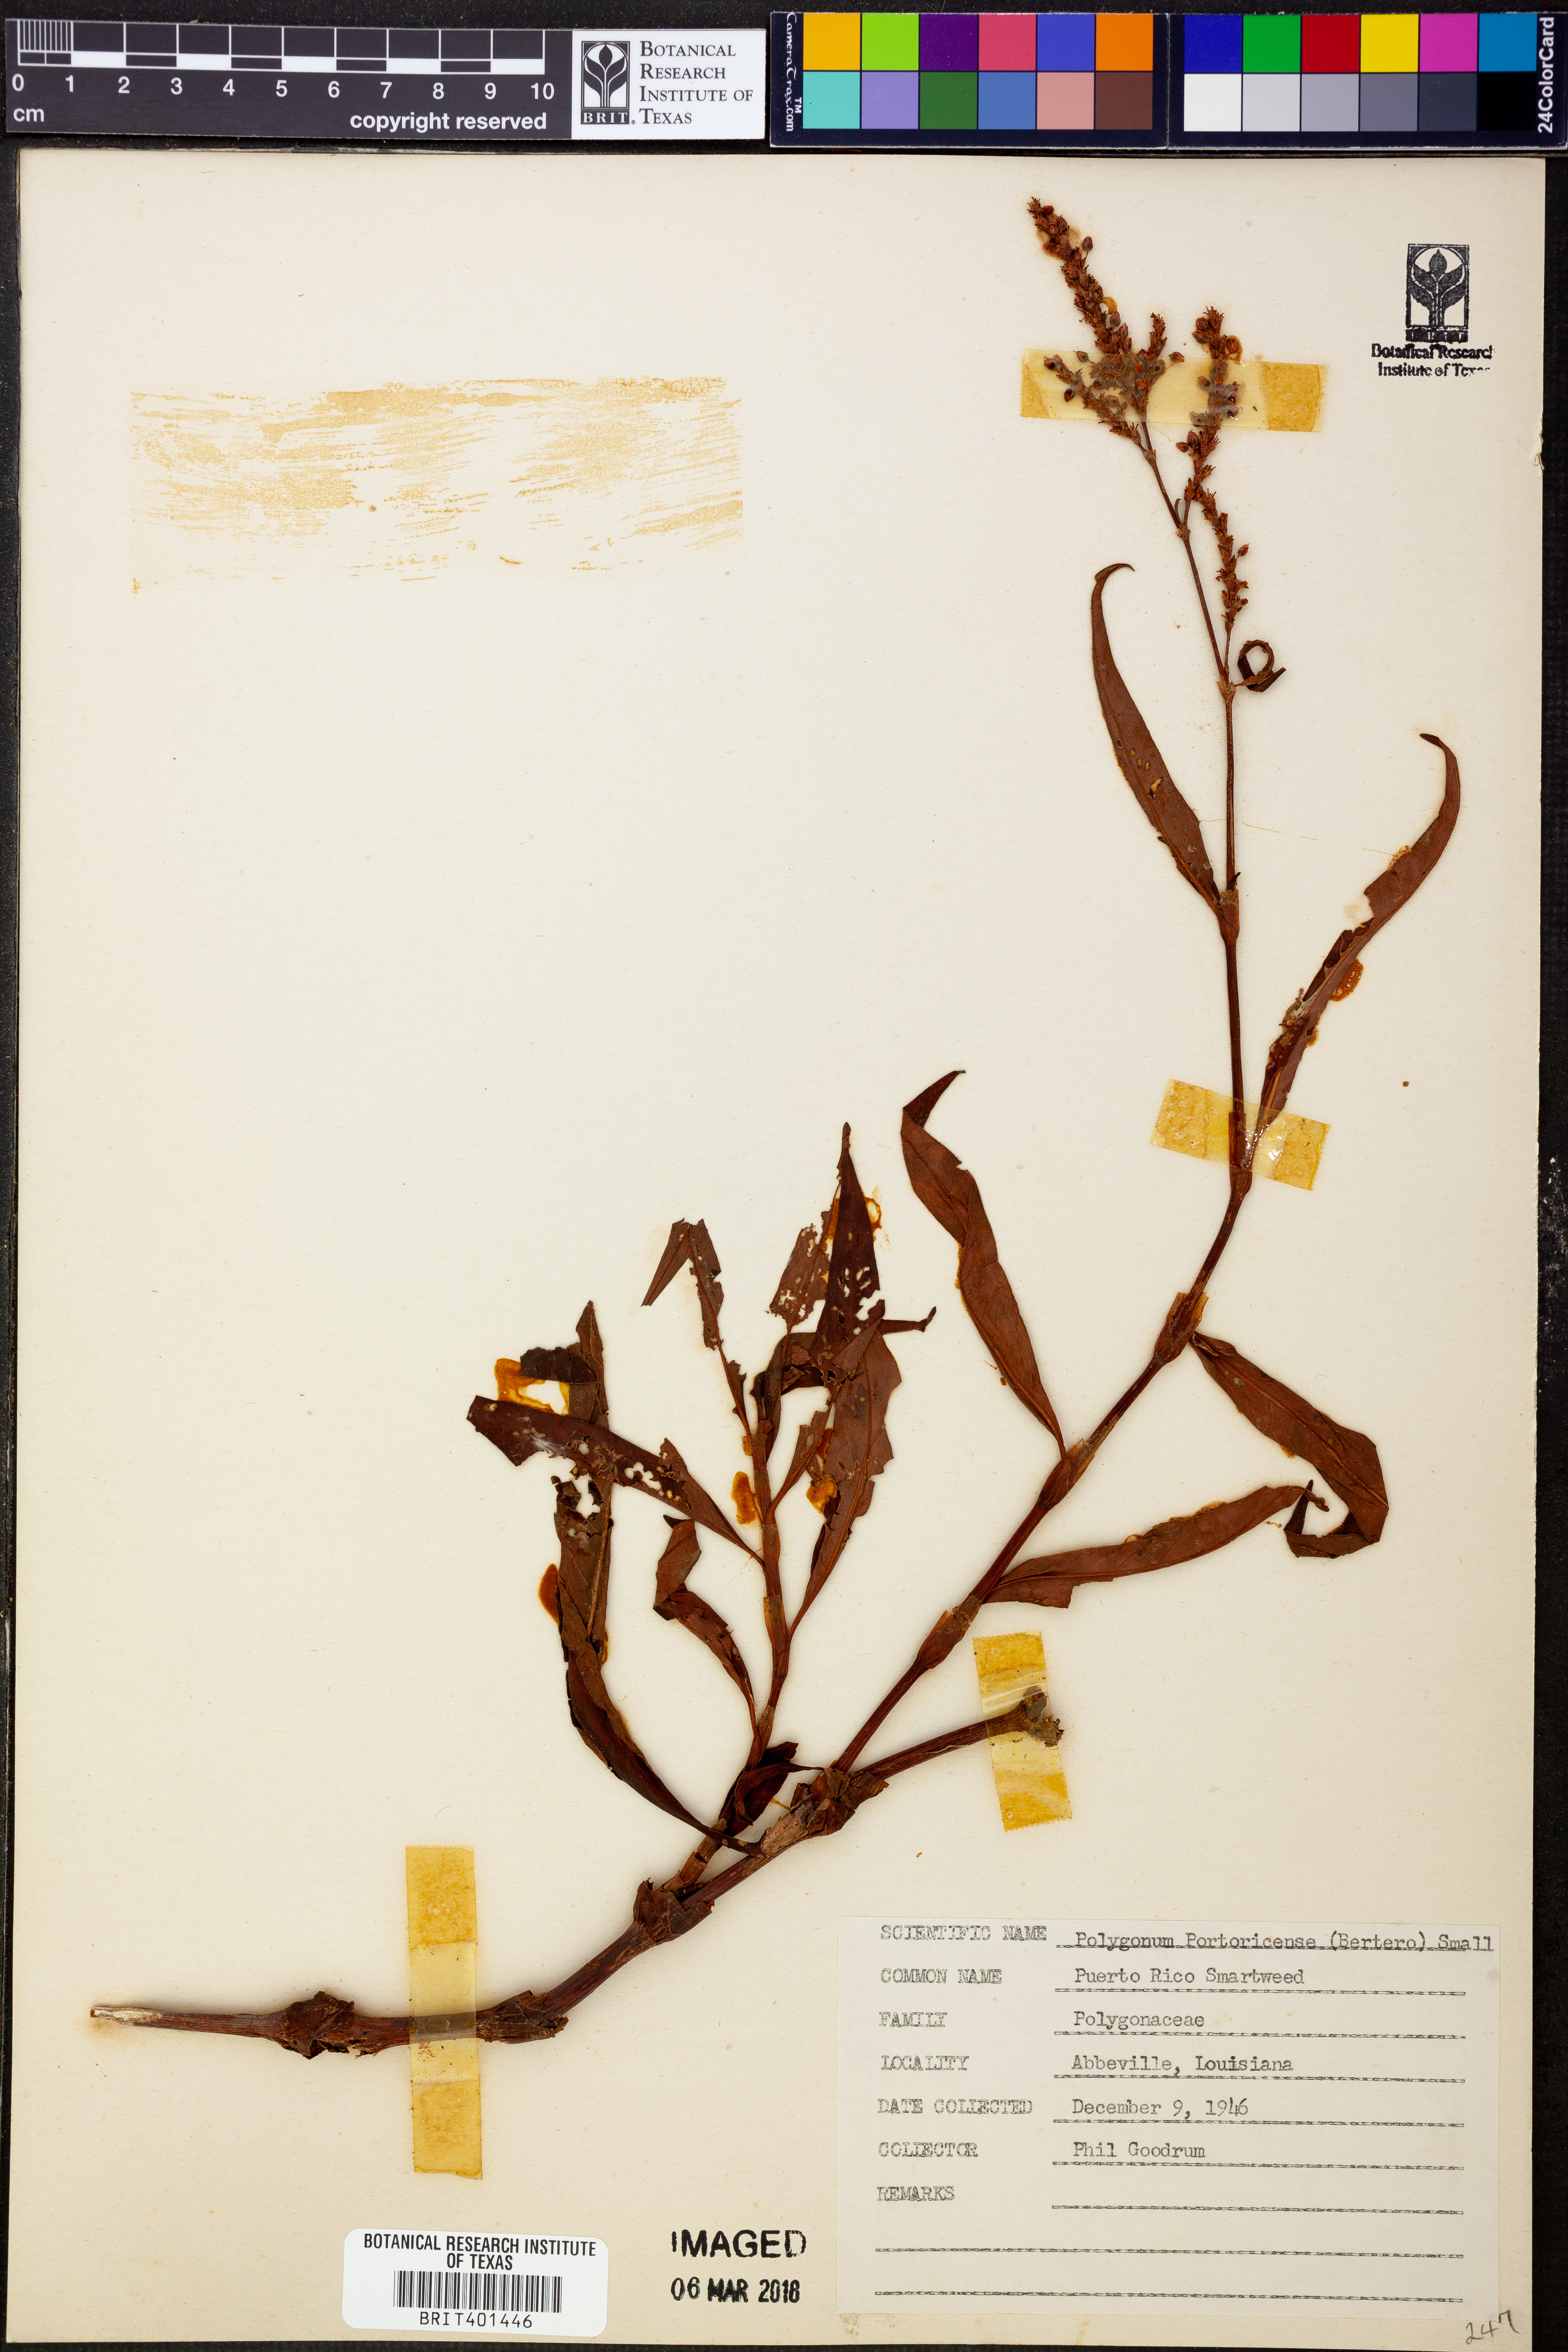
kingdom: Plantae
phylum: Tracheophyta
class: Magnoliopsida
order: Caryophyllales
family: Polygonaceae
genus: Persicaria
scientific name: Persicaria glabra
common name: Denseflower knotweed
